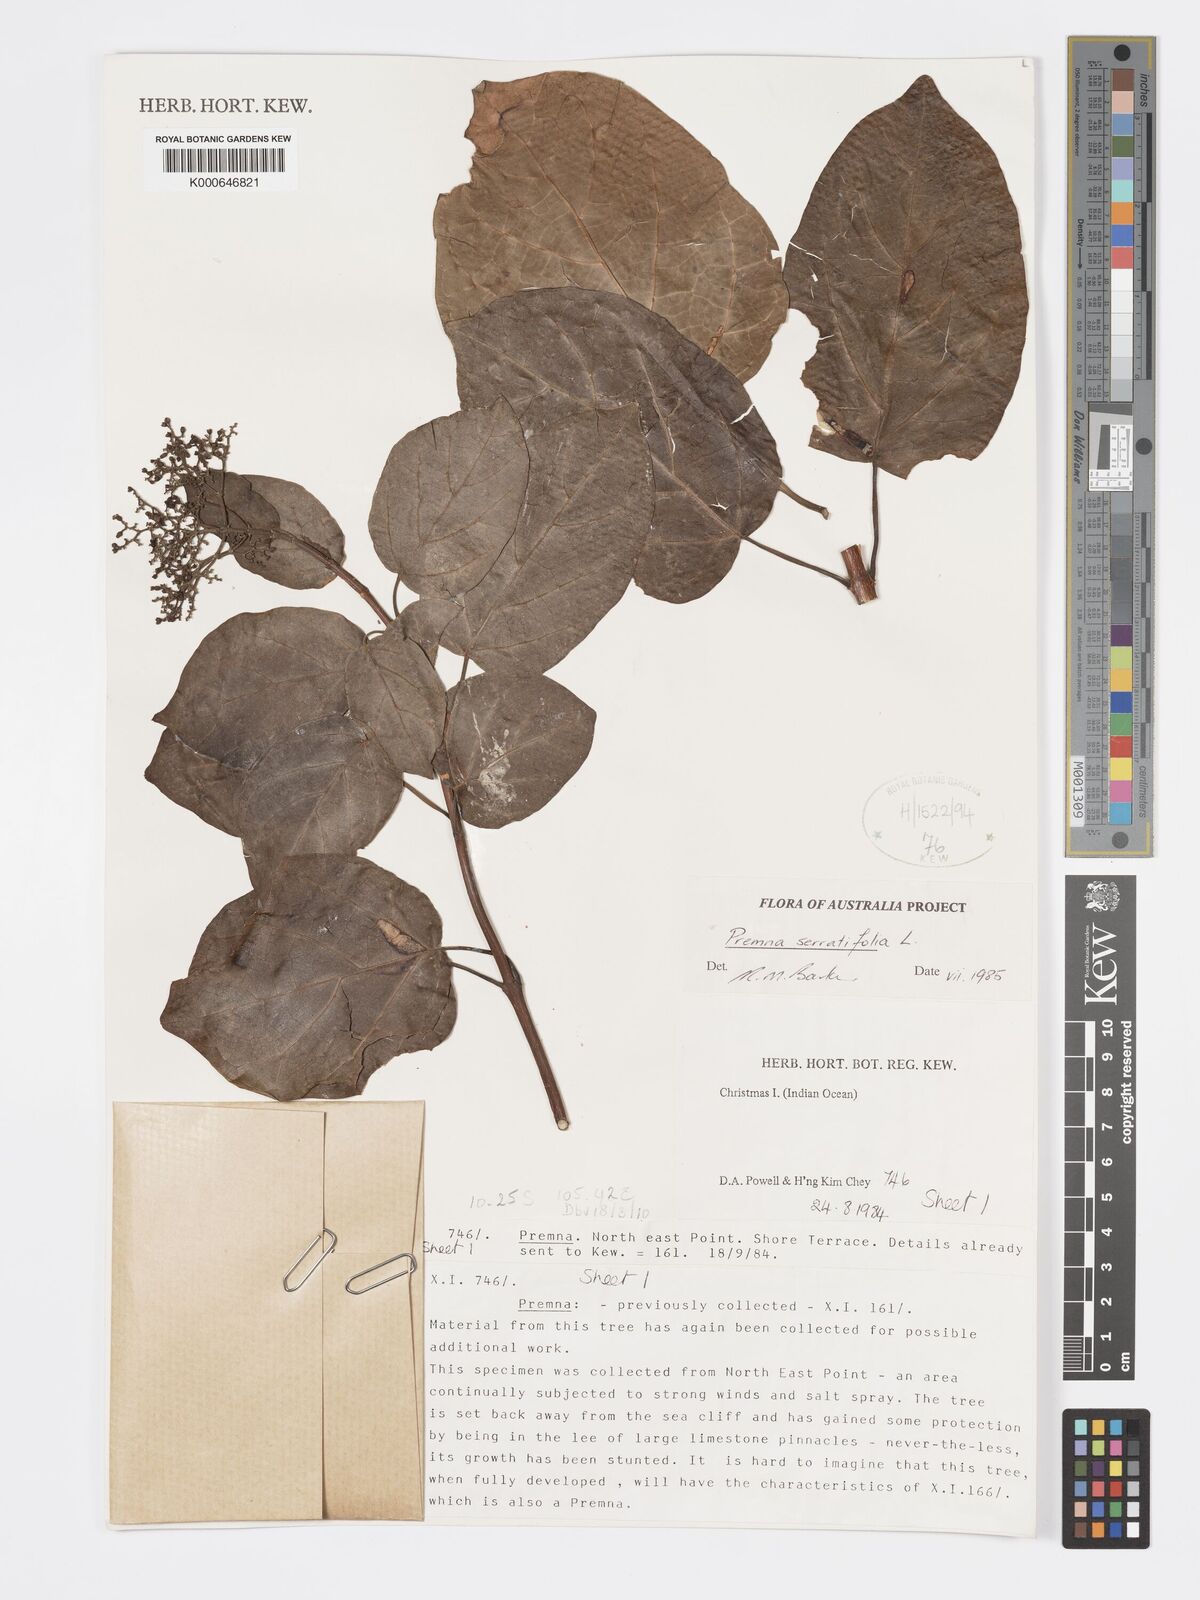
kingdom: Plantae
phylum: Tracheophyta
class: Magnoliopsida
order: Lamiales
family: Lamiaceae
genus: Premna
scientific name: Premna serratifolia
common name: Bastard guelder
